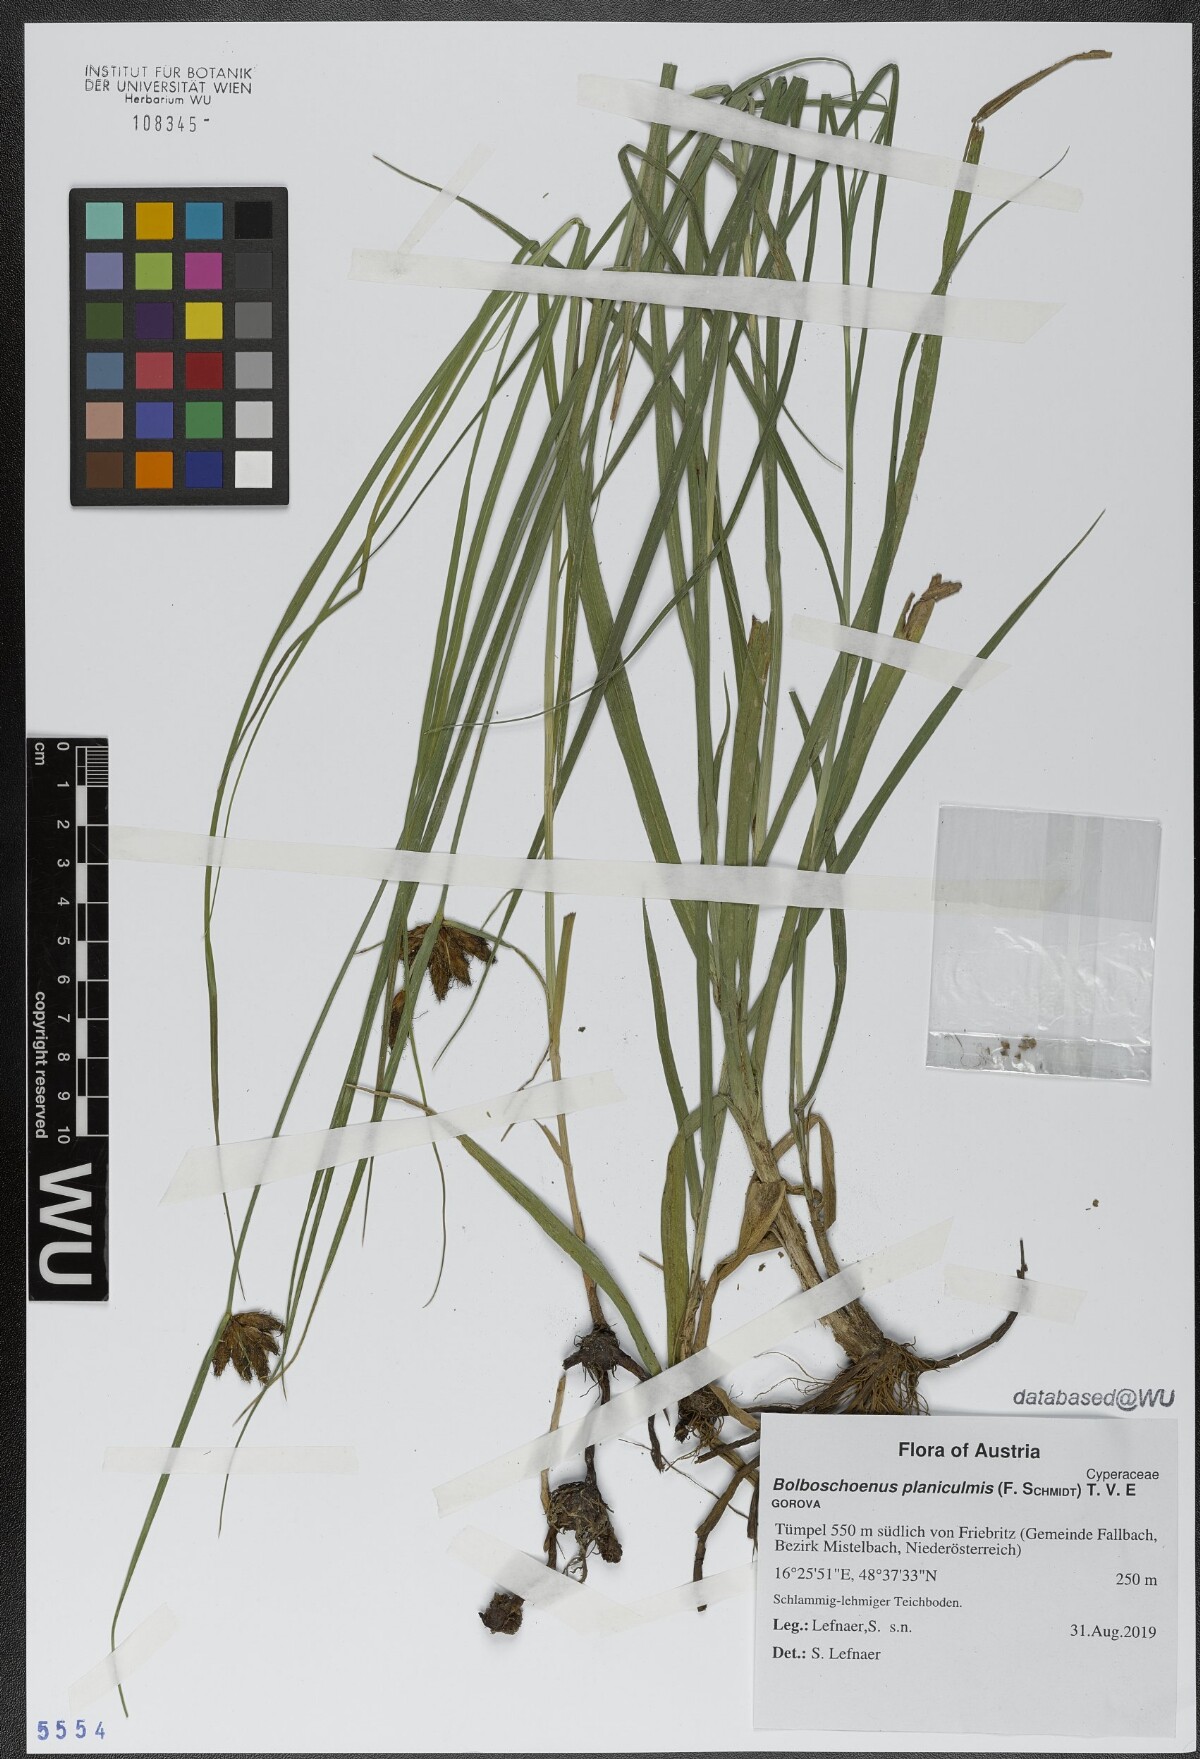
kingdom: Plantae
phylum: Tracheophyta
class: Liliopsida
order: Poales
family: Cyperaceae
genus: Bolboschoenus
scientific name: Bolboschoenus planiculmis
